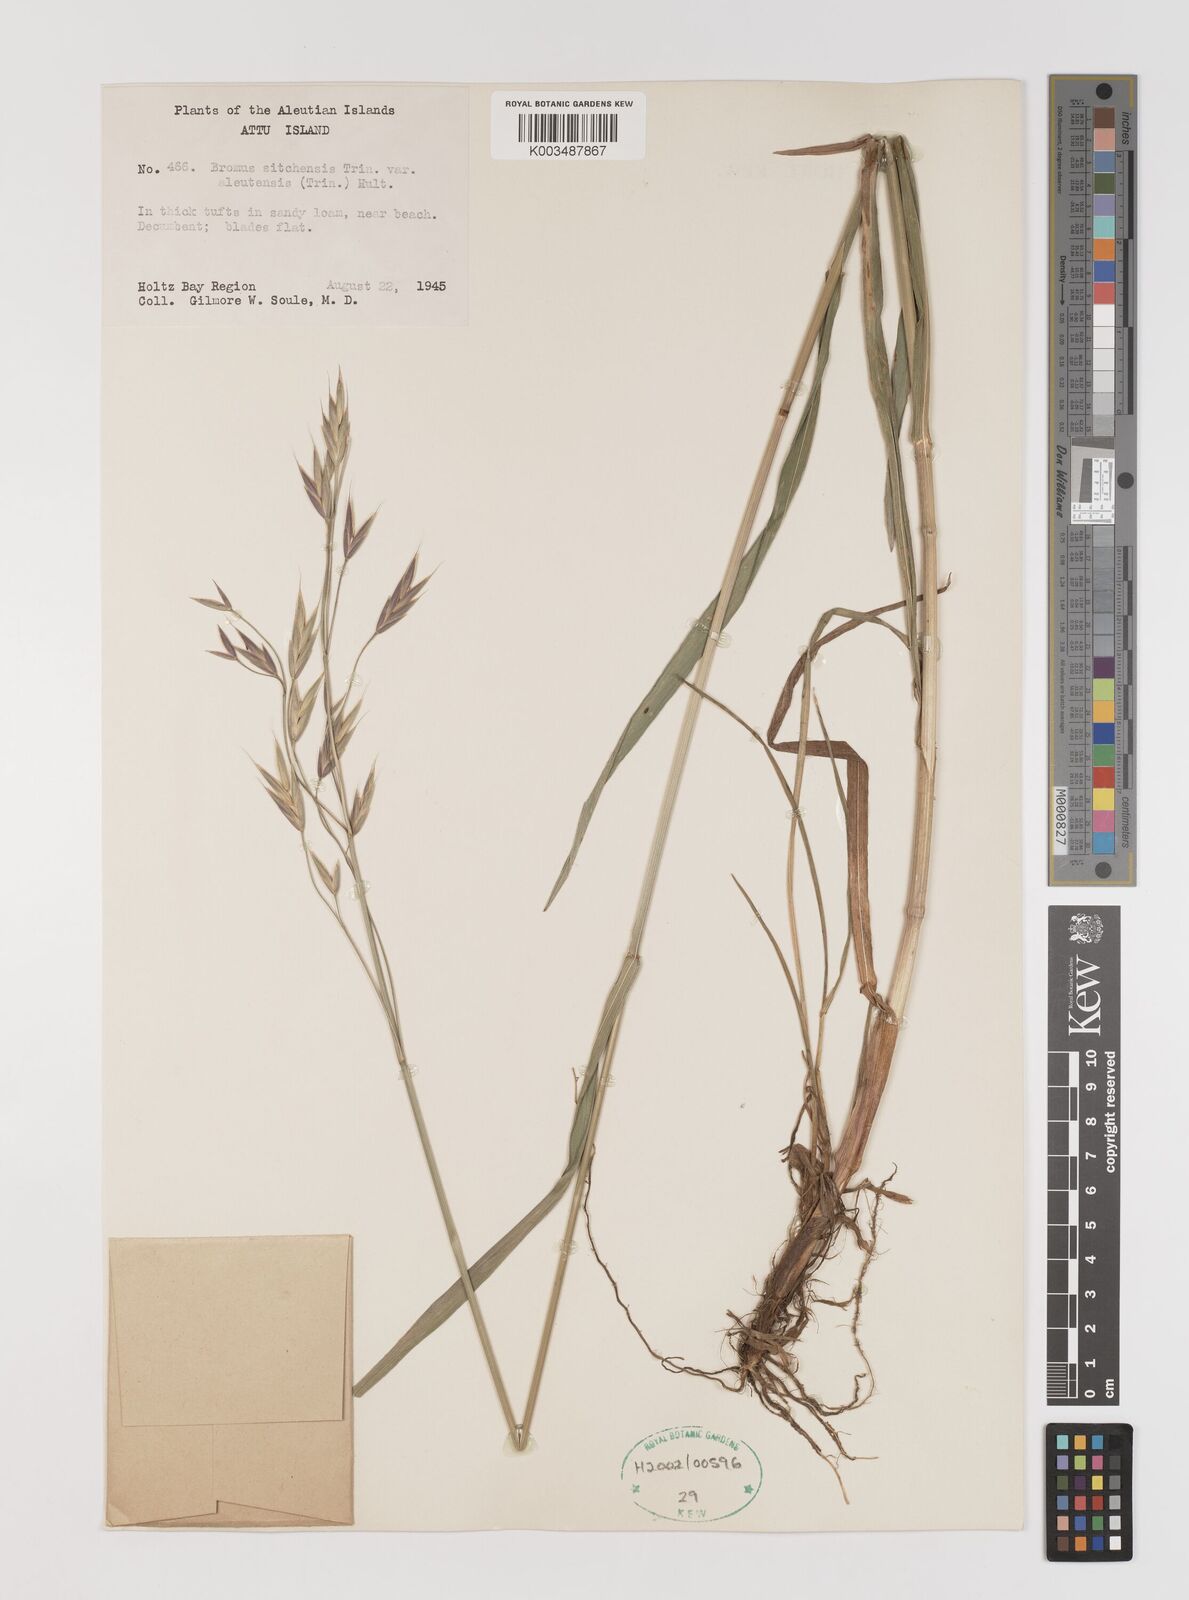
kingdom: Plantae
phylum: Tracheophyta
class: Liliopsida
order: Poales
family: Poaceae
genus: Bromus
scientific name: Bromus sitchensis
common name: Sitka brome
